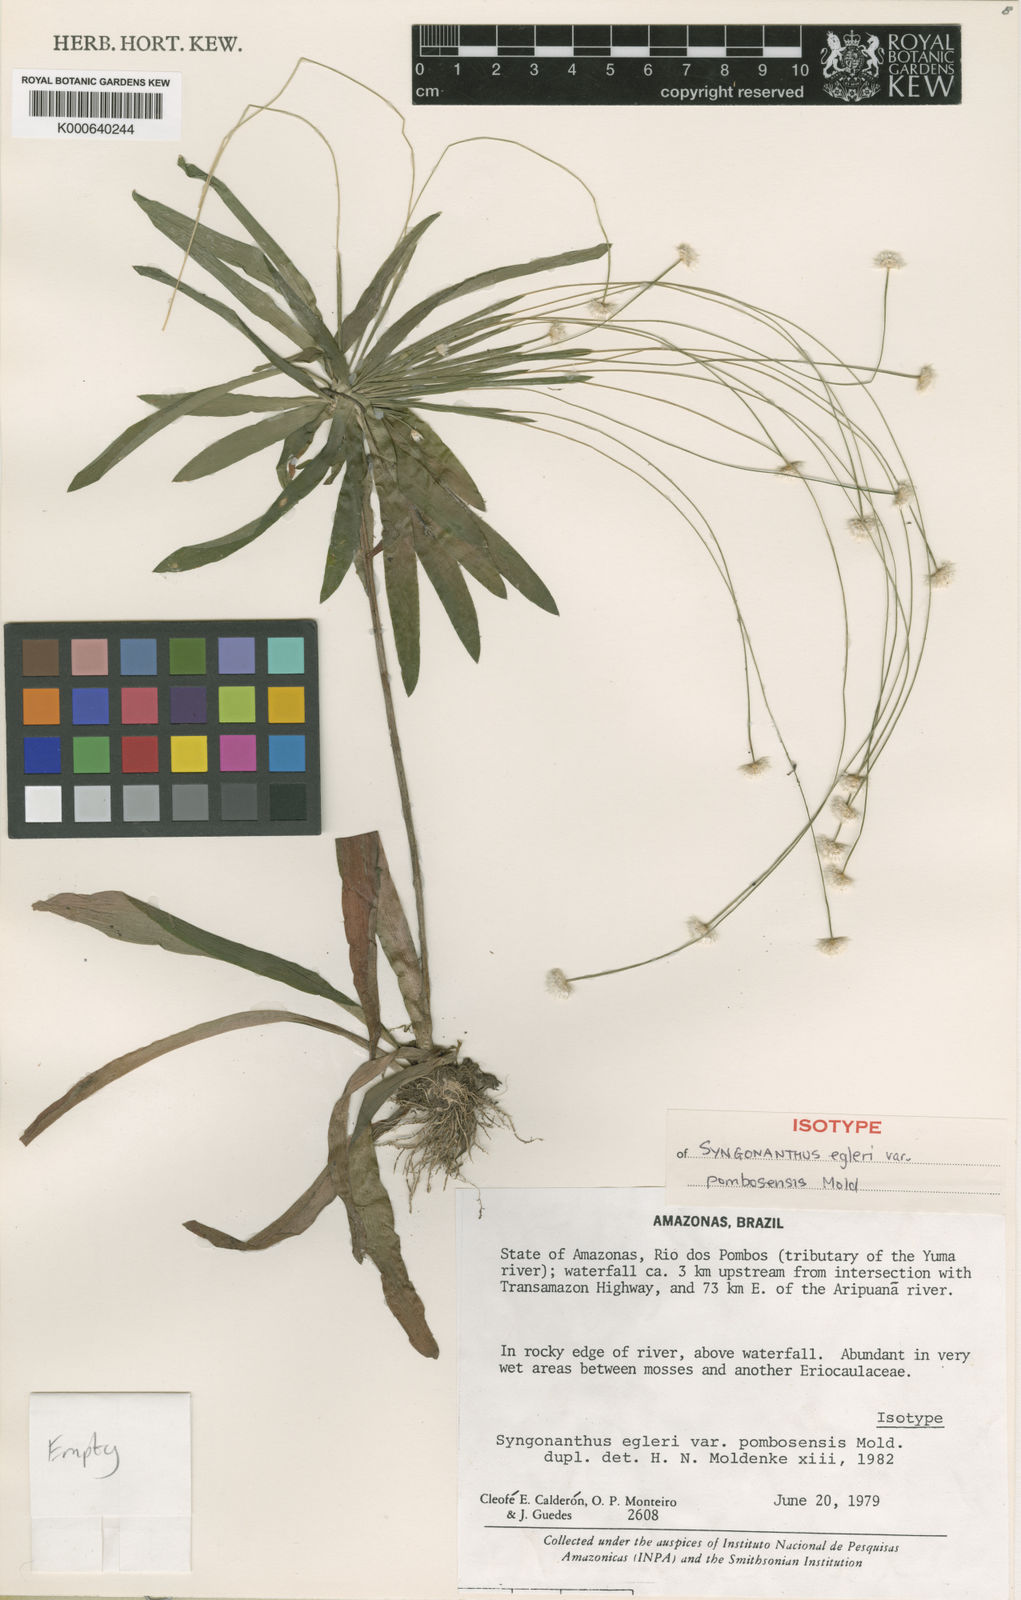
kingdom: Plantae
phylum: Tracheophyta
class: Liliopsida
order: Poales
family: Eriocaulaceae
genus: Syngonanthus
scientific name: Syngonanthus egleri
